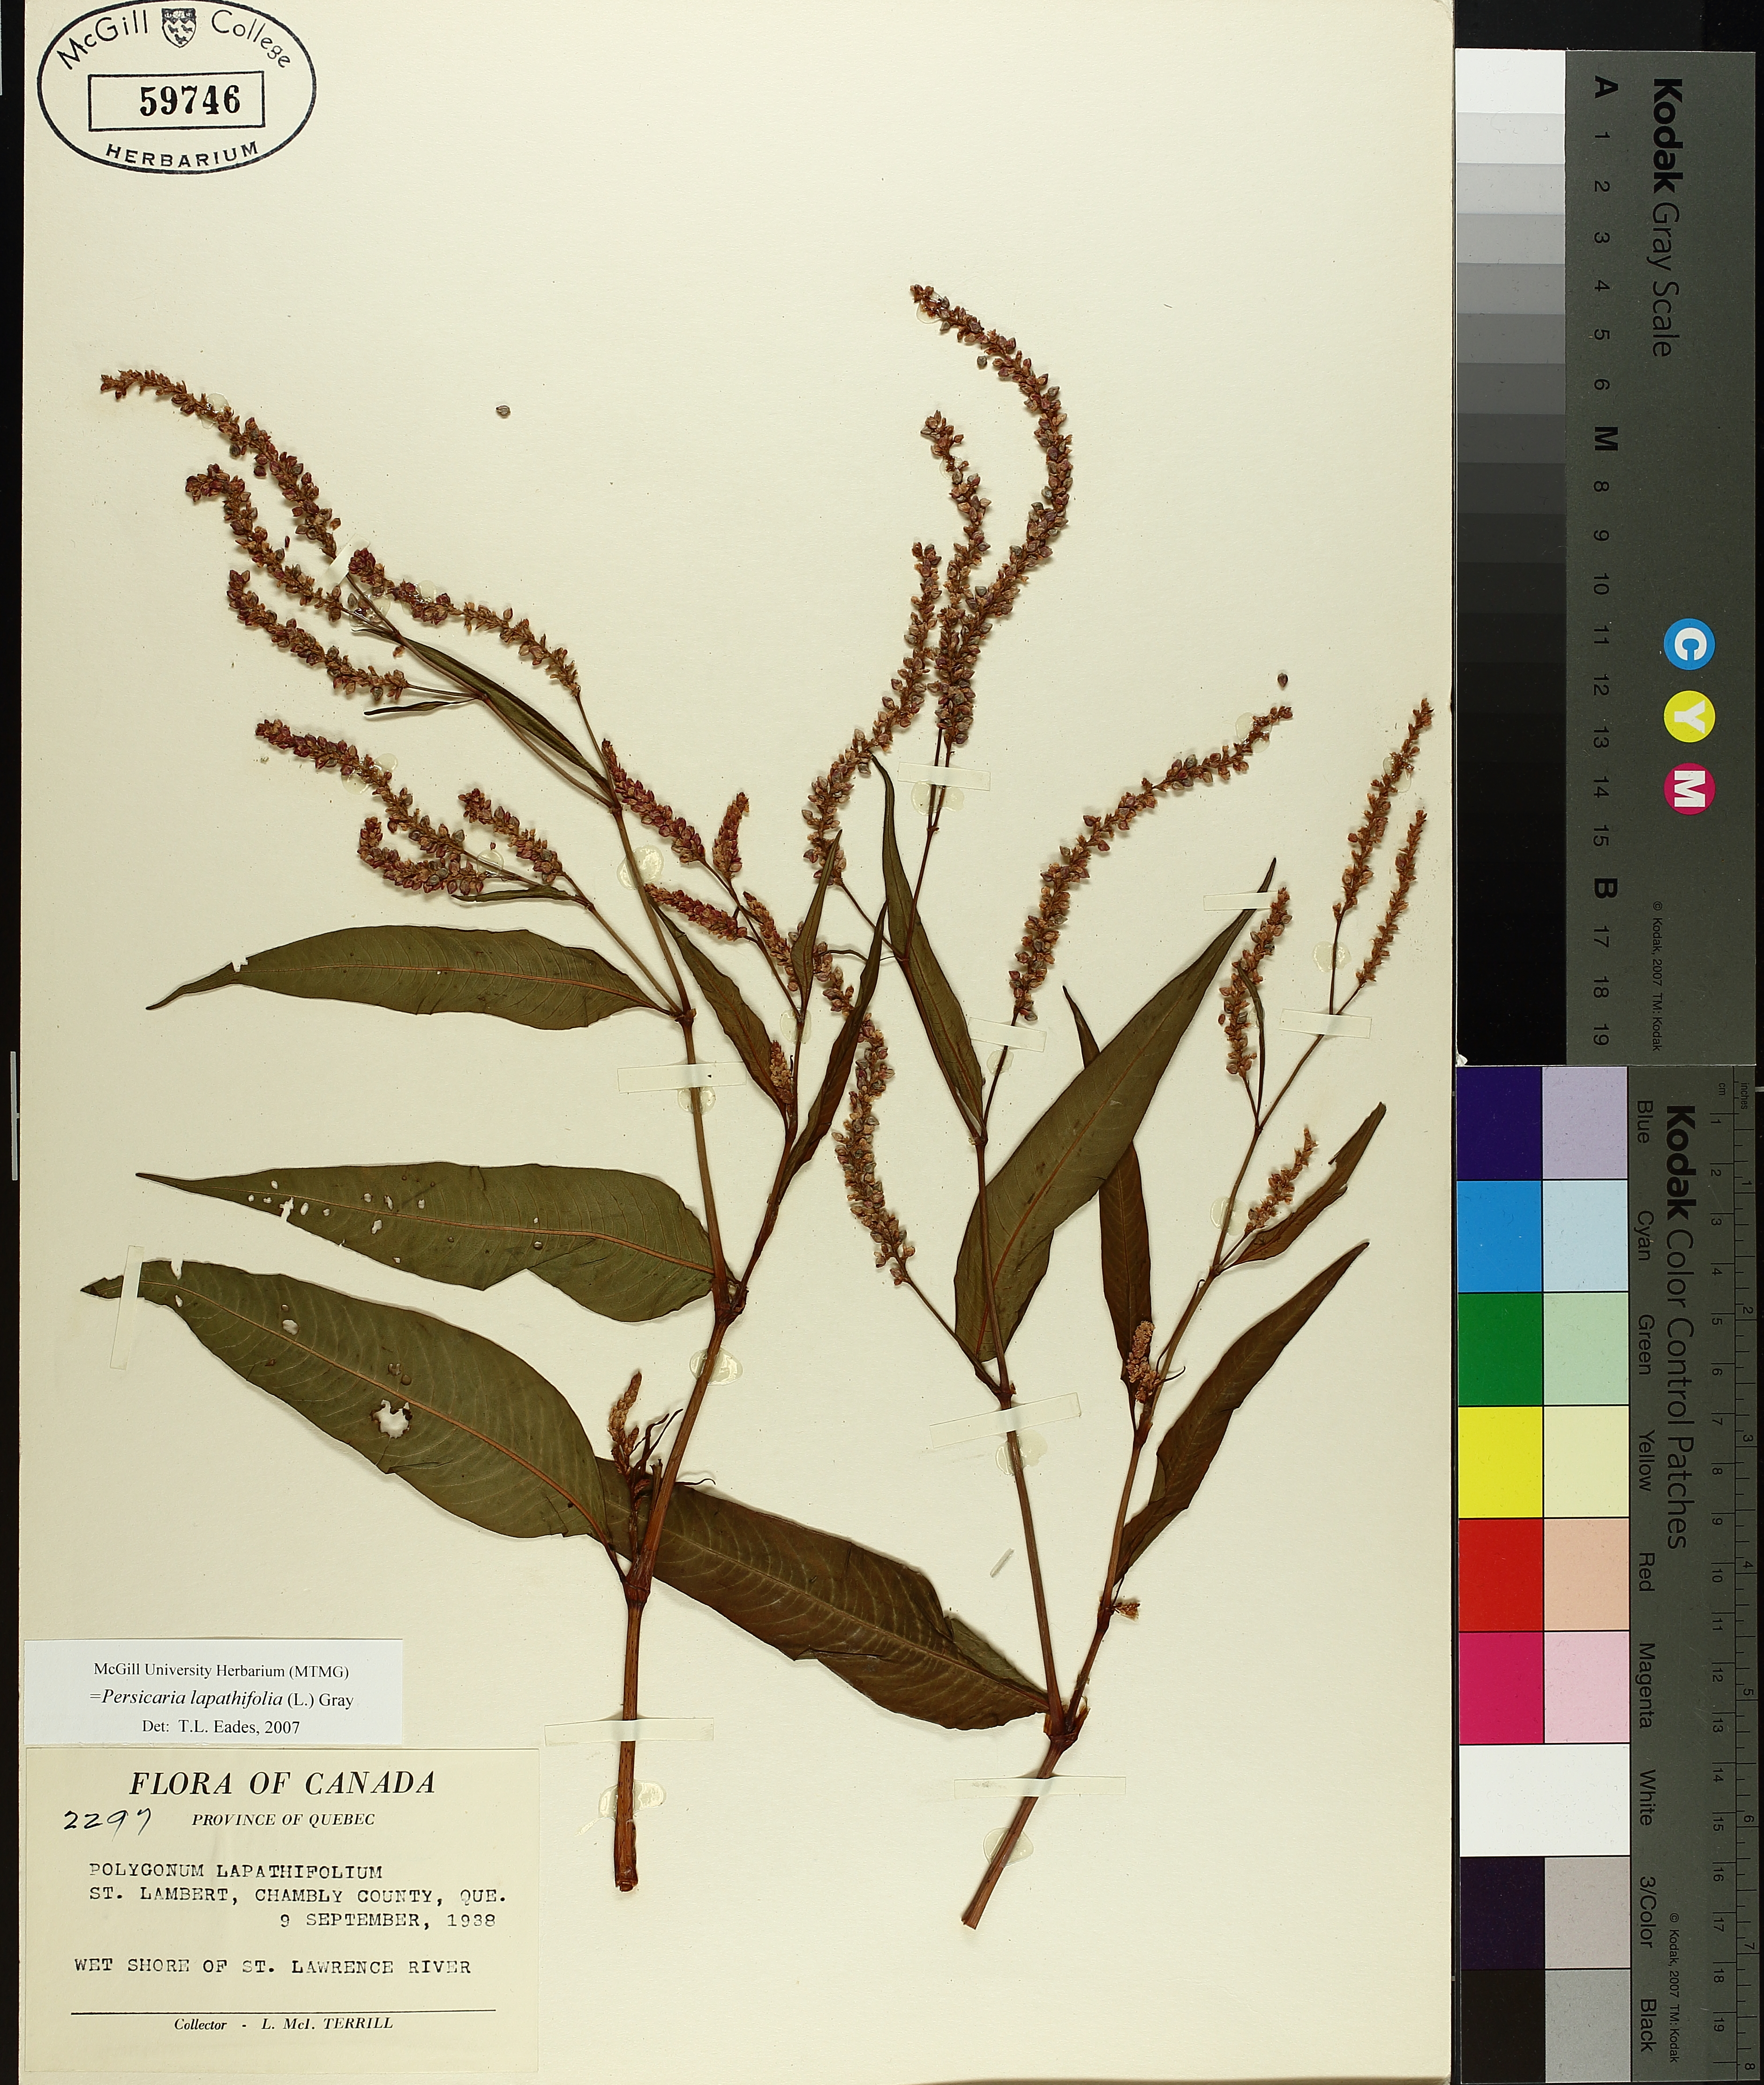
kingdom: Plantae
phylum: Tracheophyta
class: Magnoliopsida
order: Caryophyllales
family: Polygonaceae
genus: Persicaria
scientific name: Persicaria lapathifolia
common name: Curlytop knotweed
